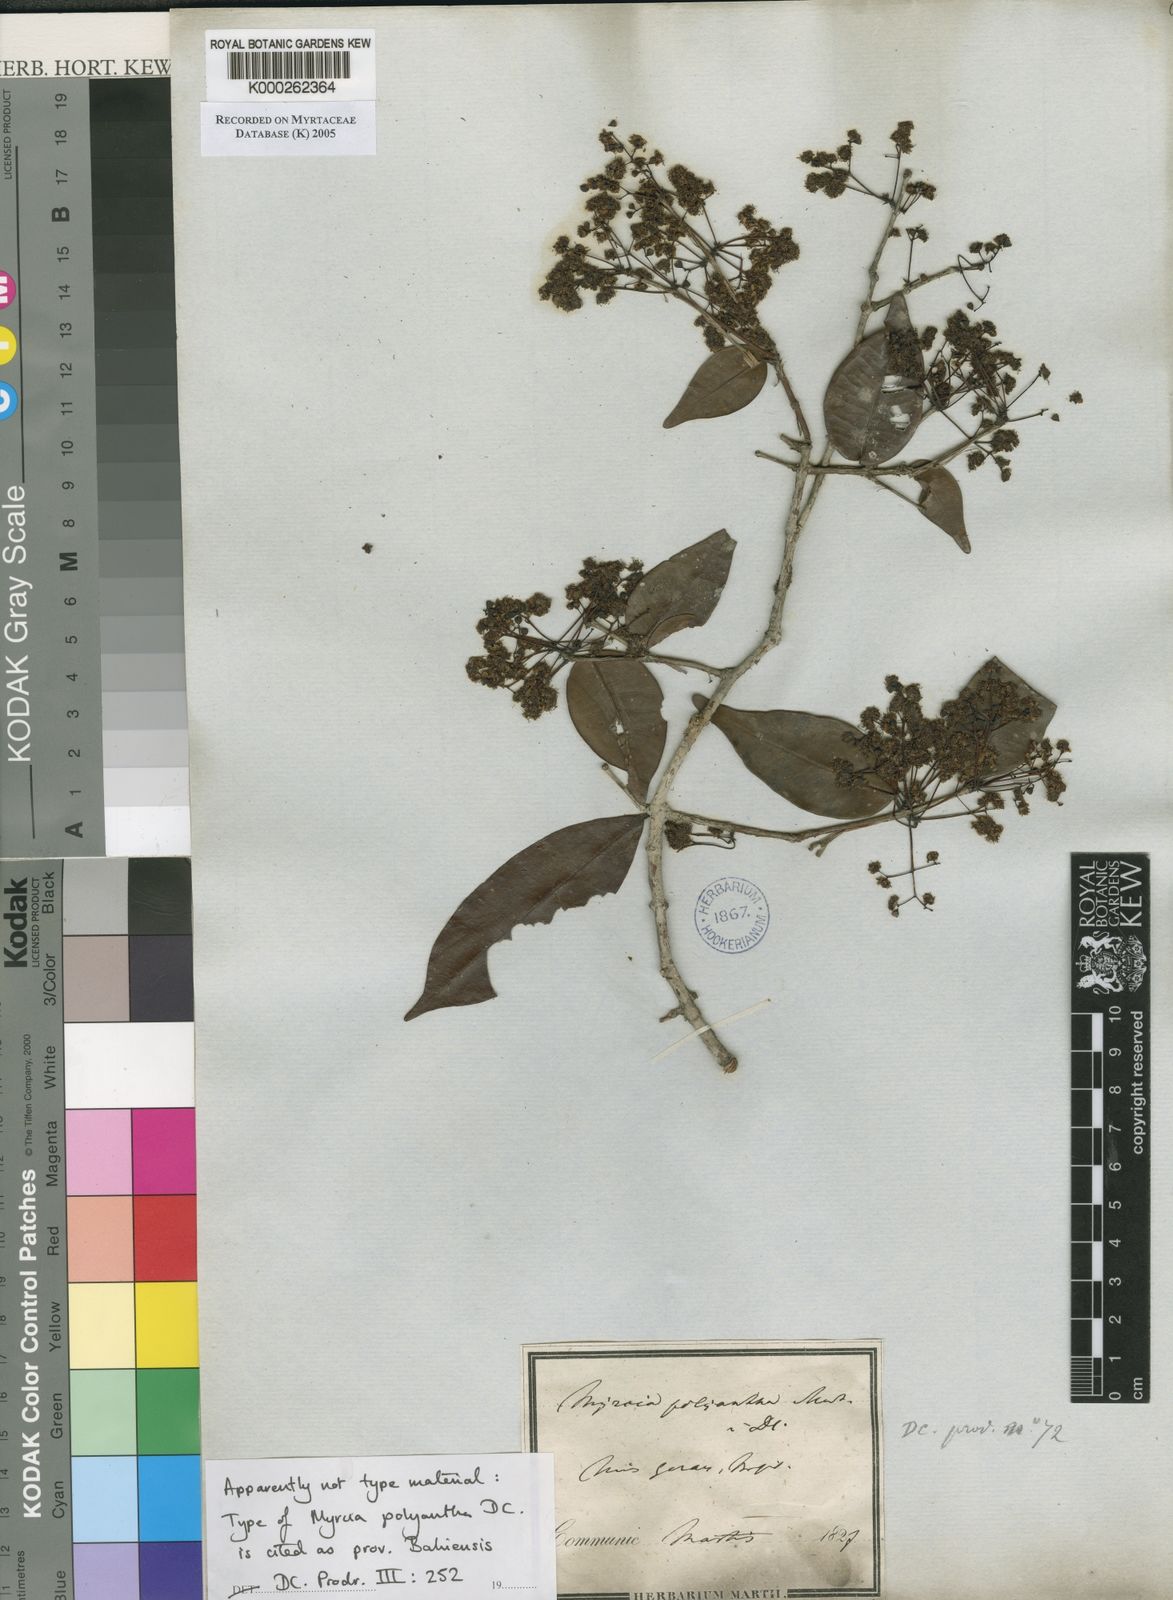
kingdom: Plantae
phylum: Tracheophyta
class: Magnoliopsida
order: Myrtales
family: Myrtaceae
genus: Myrcia
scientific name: Myrcia neopolyantha
